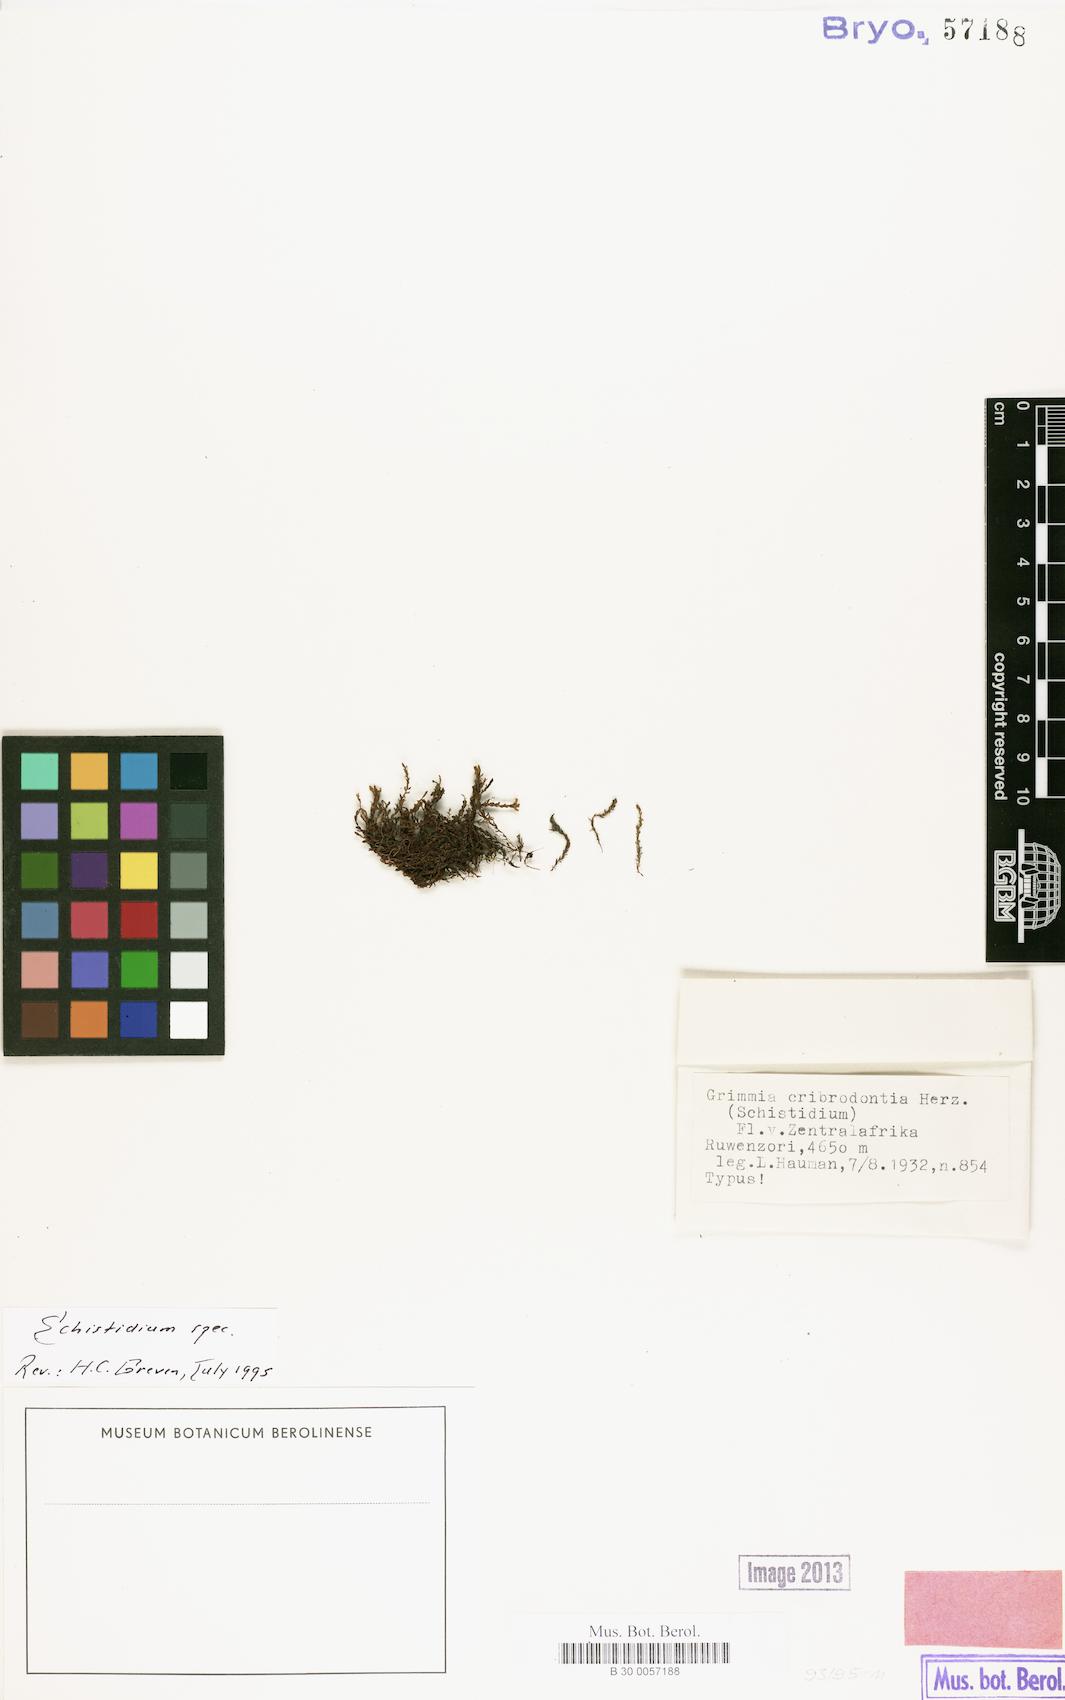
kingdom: Plantae
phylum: Bryophyta
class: Bryopsida
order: Grimmiales
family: Grimmiaceae
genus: Schistidium
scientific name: Schistidium cribrodontium
